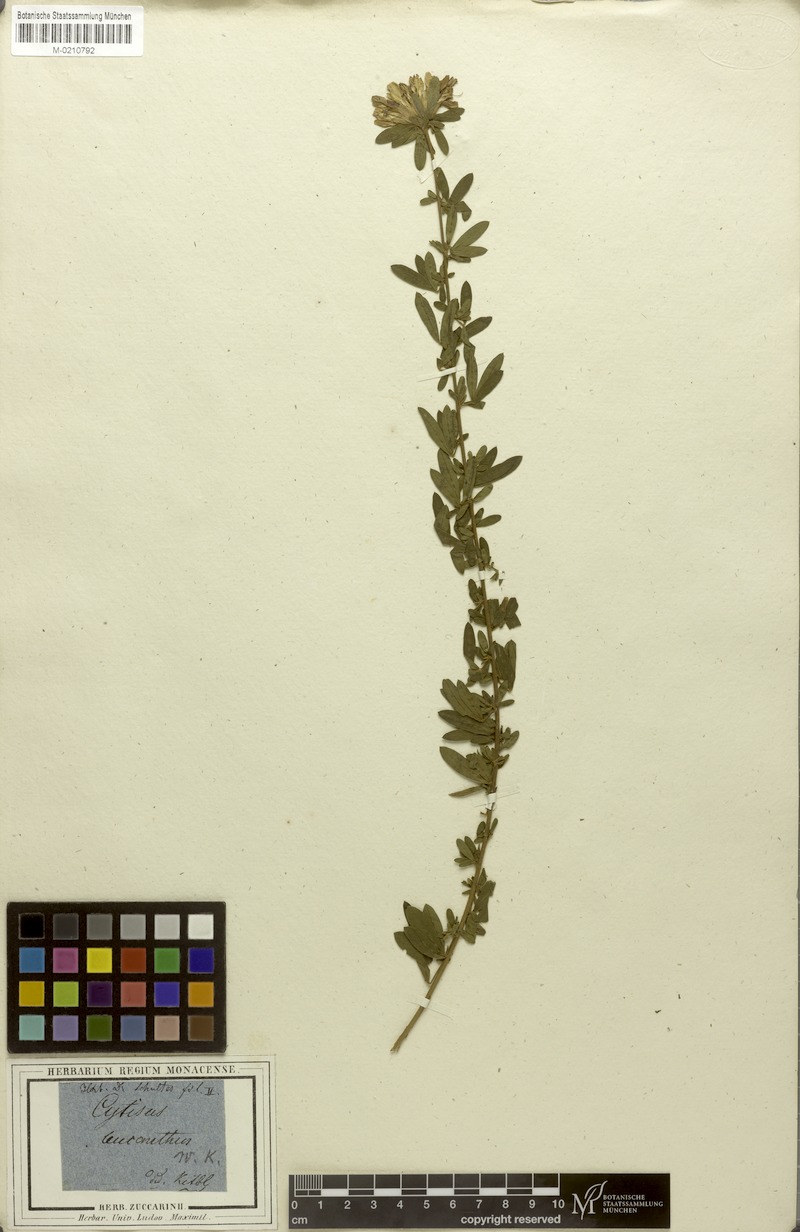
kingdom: Plantae
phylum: Tracheophyta
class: Magnoliopsida
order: Fabales
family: Fabaceae
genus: Chamaecytisus
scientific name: Chamaecytisus albus
